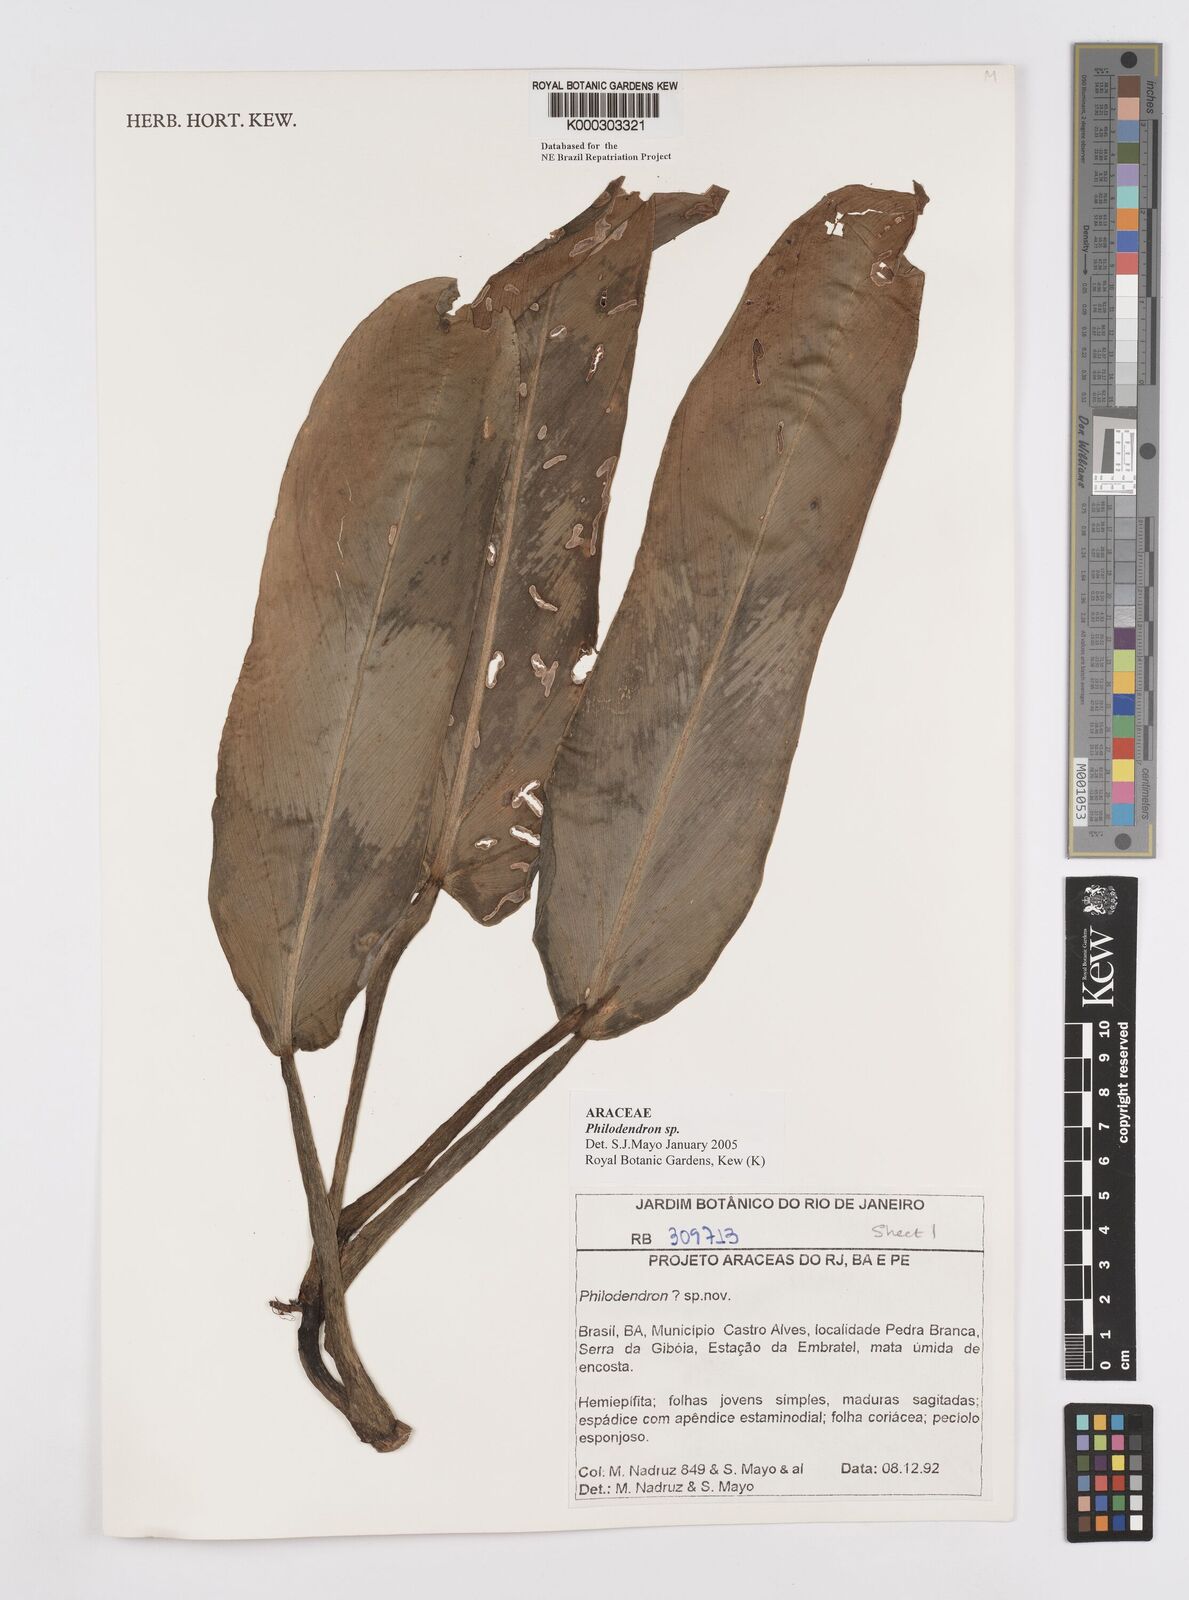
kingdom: Plantae
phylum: Tracheophyta
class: Liliopsida
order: Alismatales
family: Araceae
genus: Philodendron
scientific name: Philodendron
